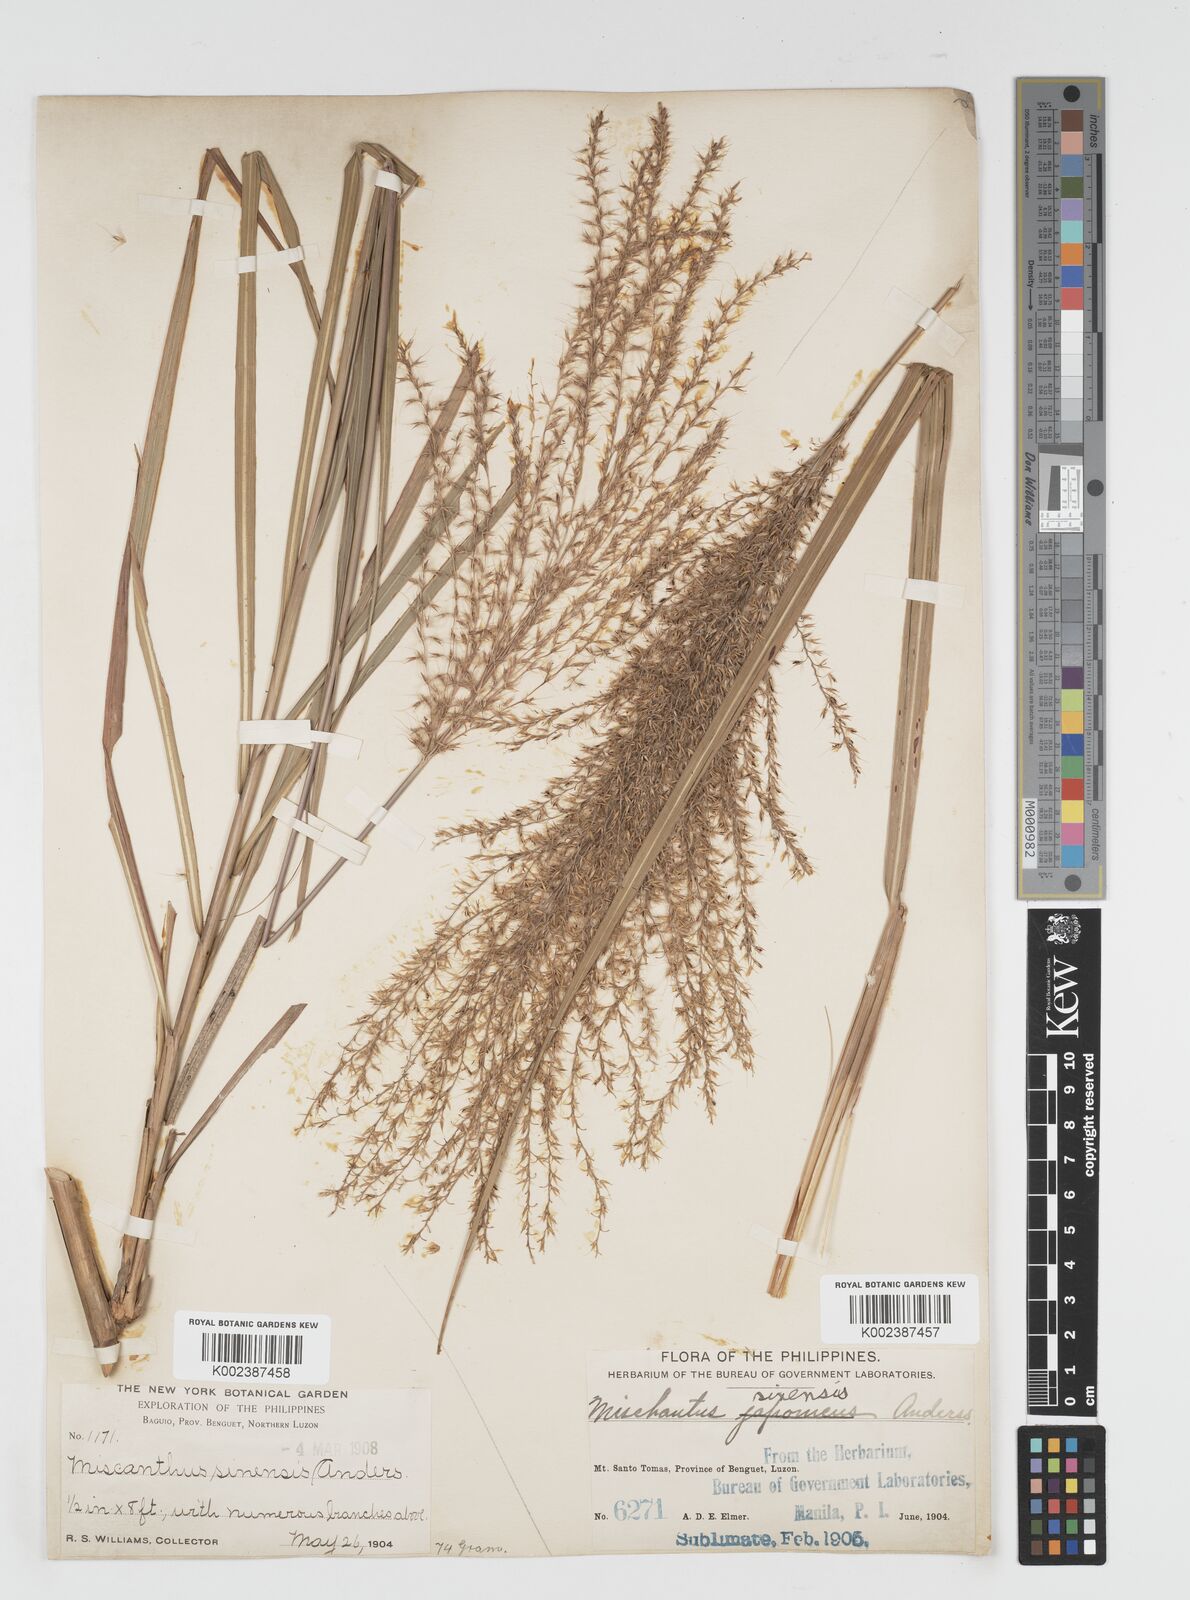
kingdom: Plantae
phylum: Tracheophyta
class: Liliopsida
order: Poales
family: Poaceae
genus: Miscanthus
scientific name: Miscanthus
